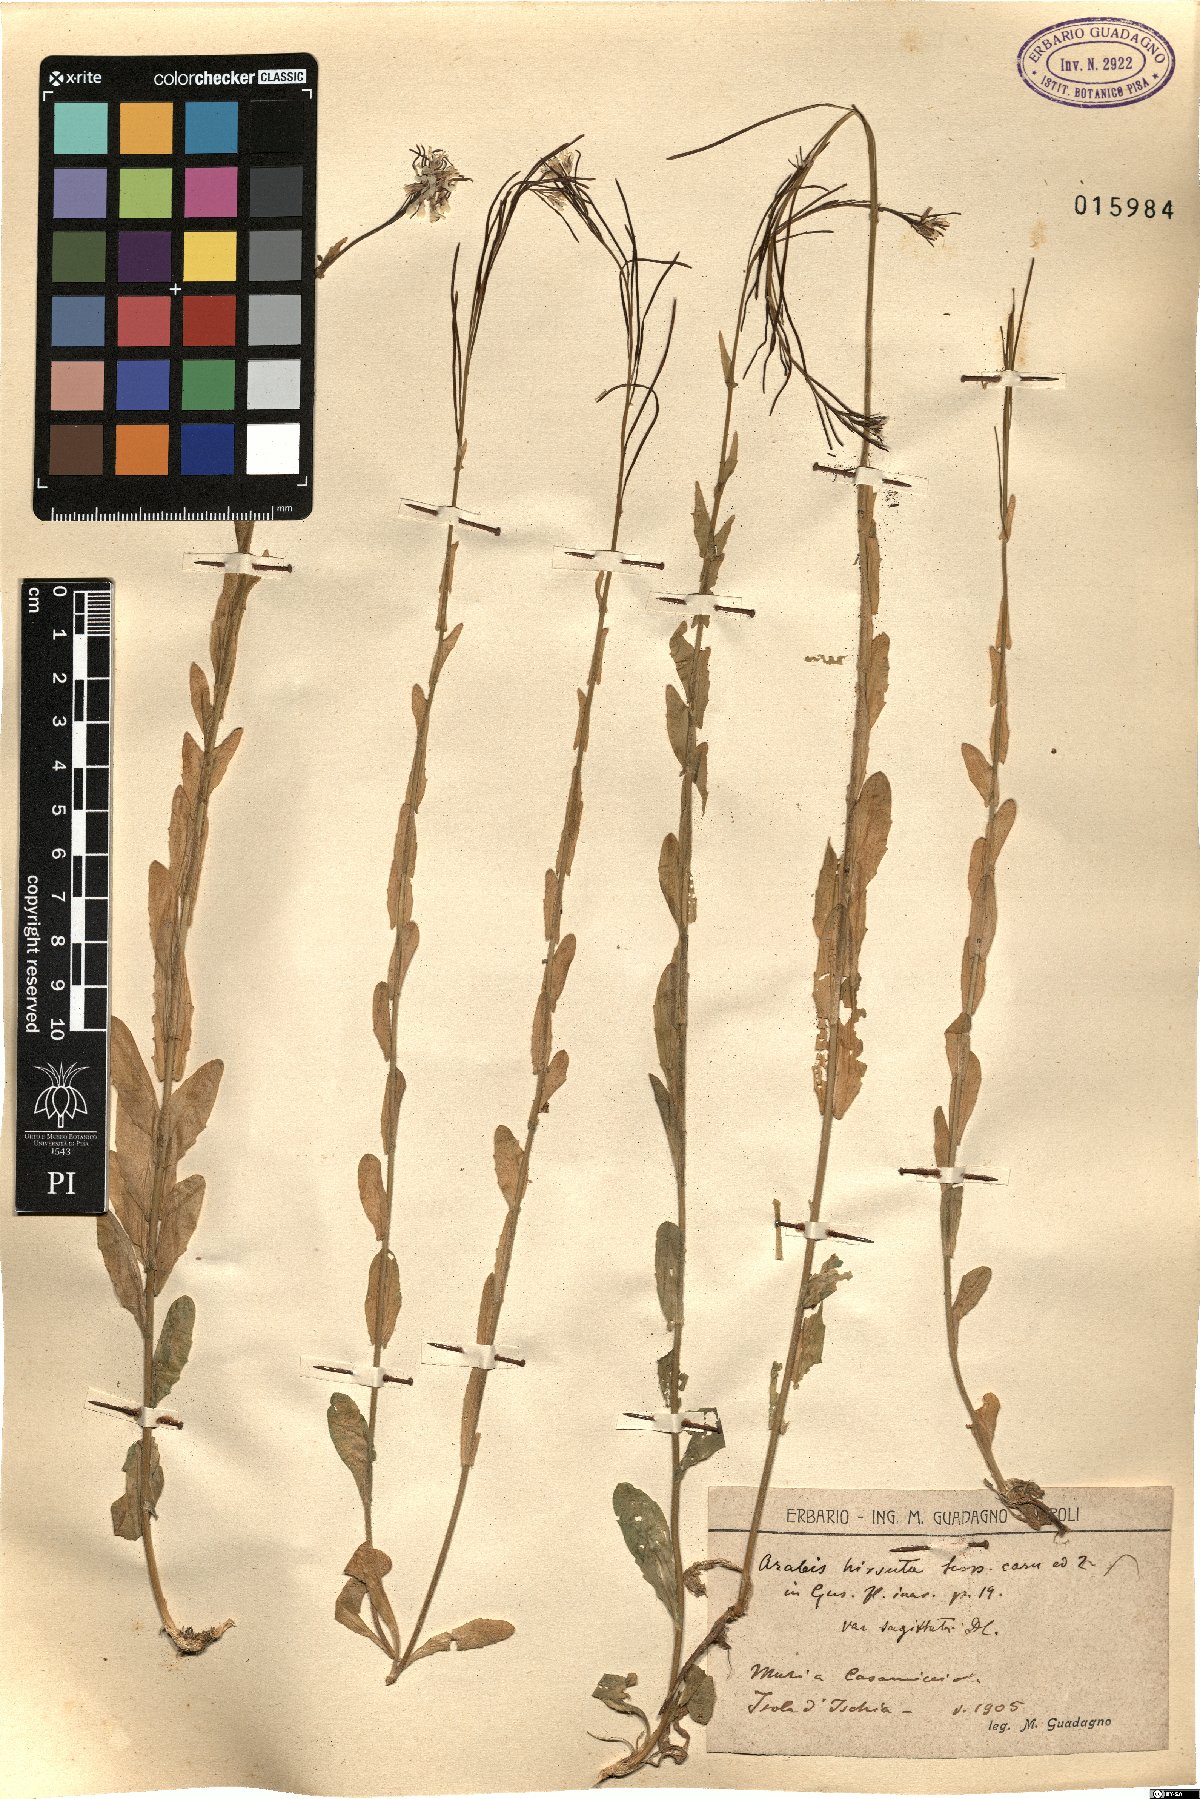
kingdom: Plantae
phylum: Tracheophyta
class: Magnoliopsida
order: Brassicales
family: Brassicaceae
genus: Arabis
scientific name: Arabis sagittata
